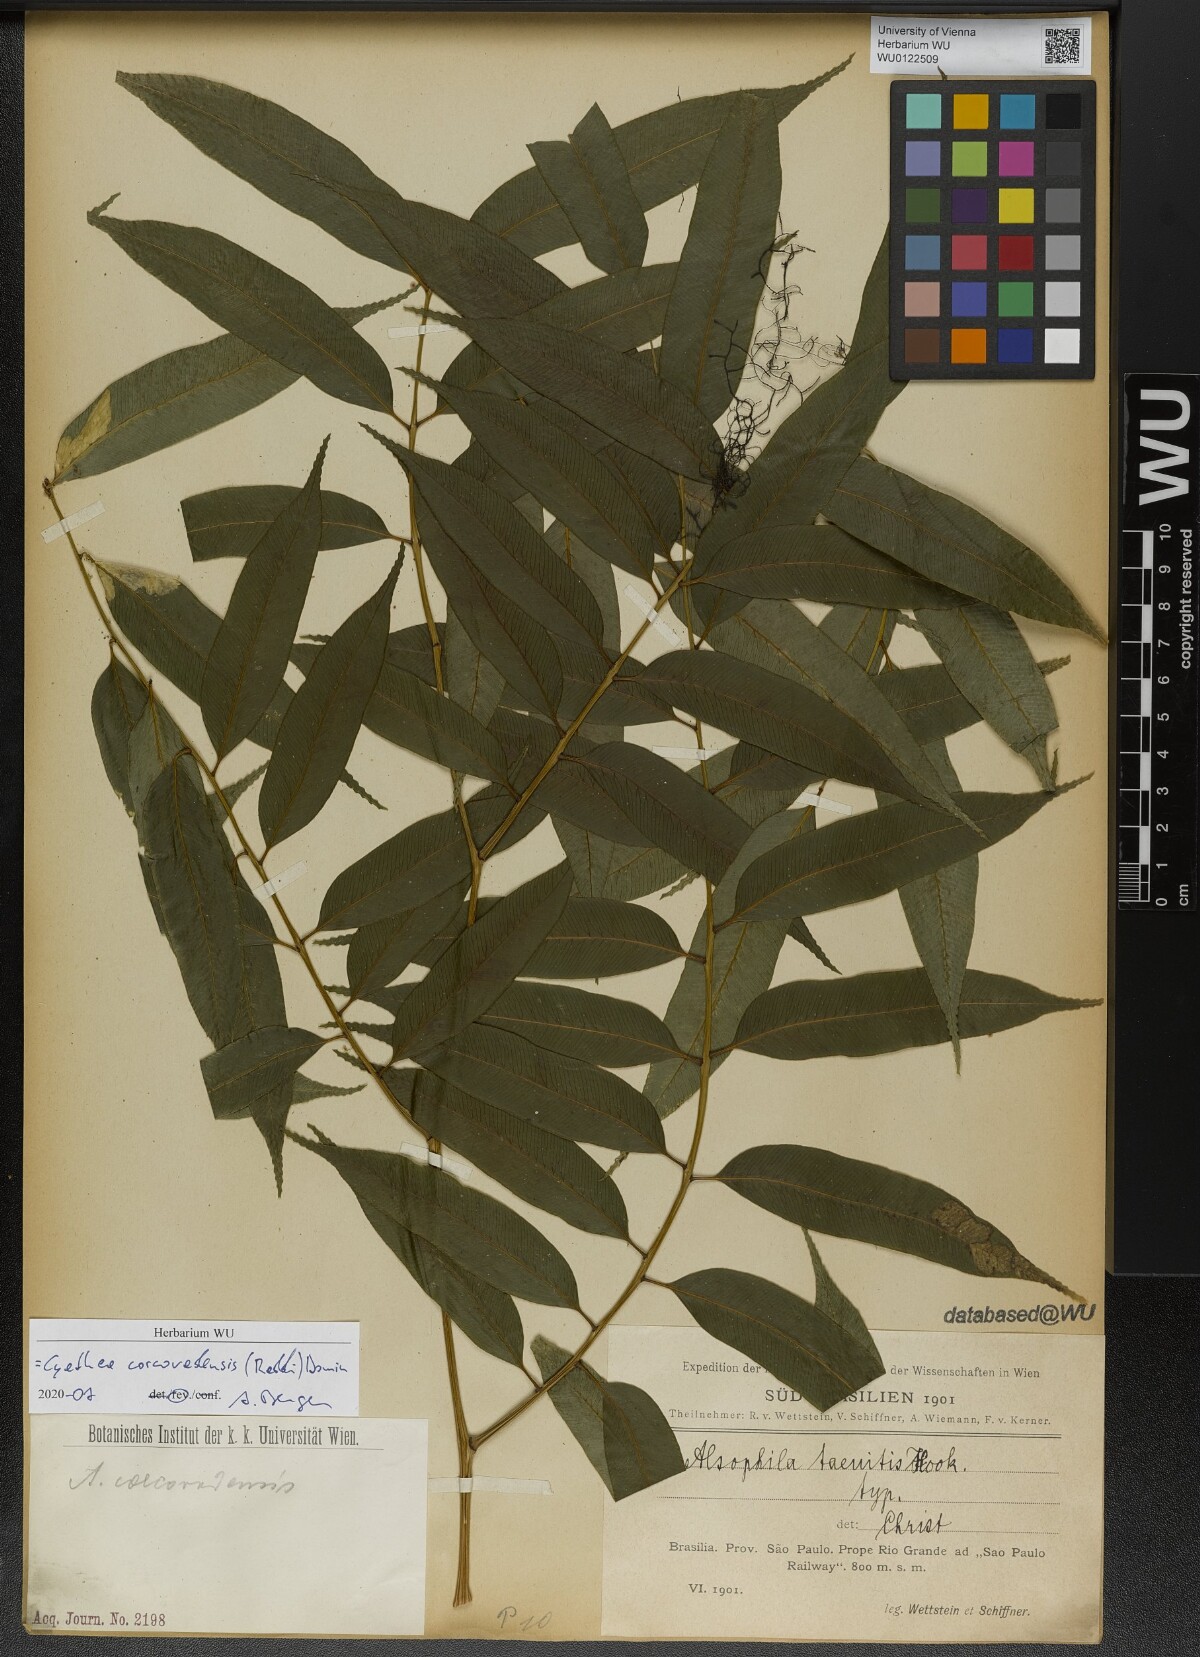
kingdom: Plantae
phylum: Tracheophyta
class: Polypodiopsida
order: Cyatheales
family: Cyatheaceae
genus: Cyathea
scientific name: Cyathea corcovadensis
